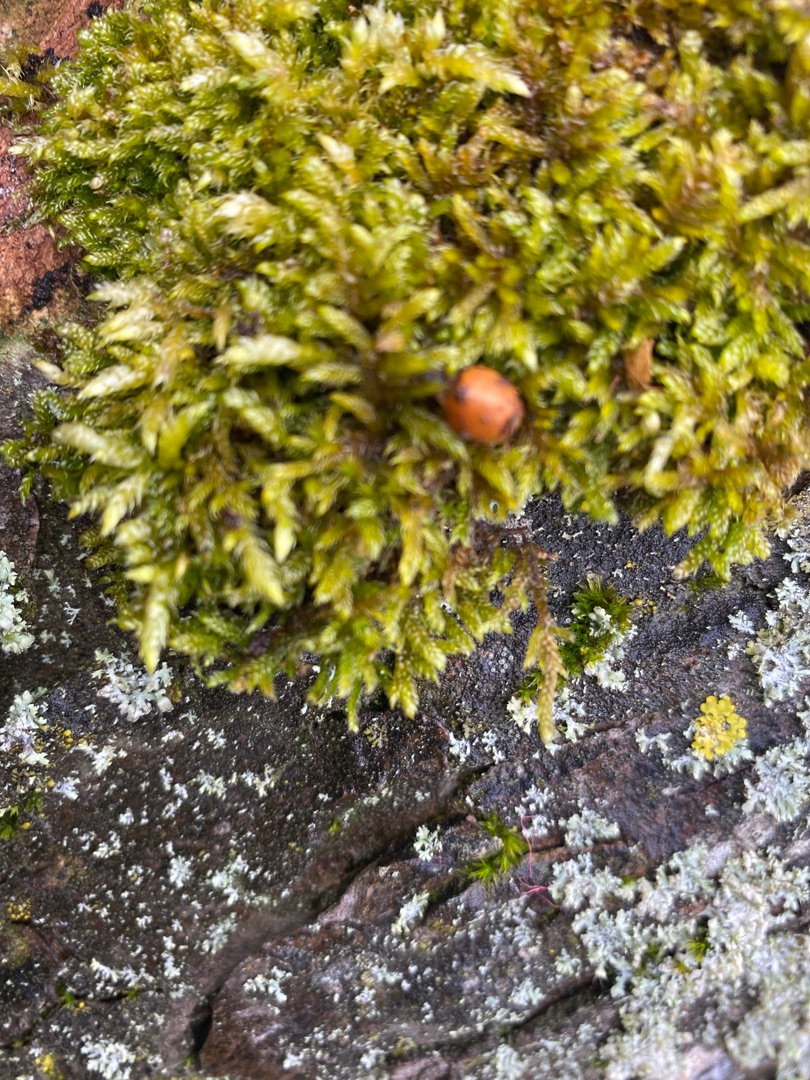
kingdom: Plantae
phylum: Bryophyta
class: Bryopsida
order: Hypnales
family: Hypnaceae
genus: Hypnum
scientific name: Hypnum cupressiforme
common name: Almindelig cypresmos
